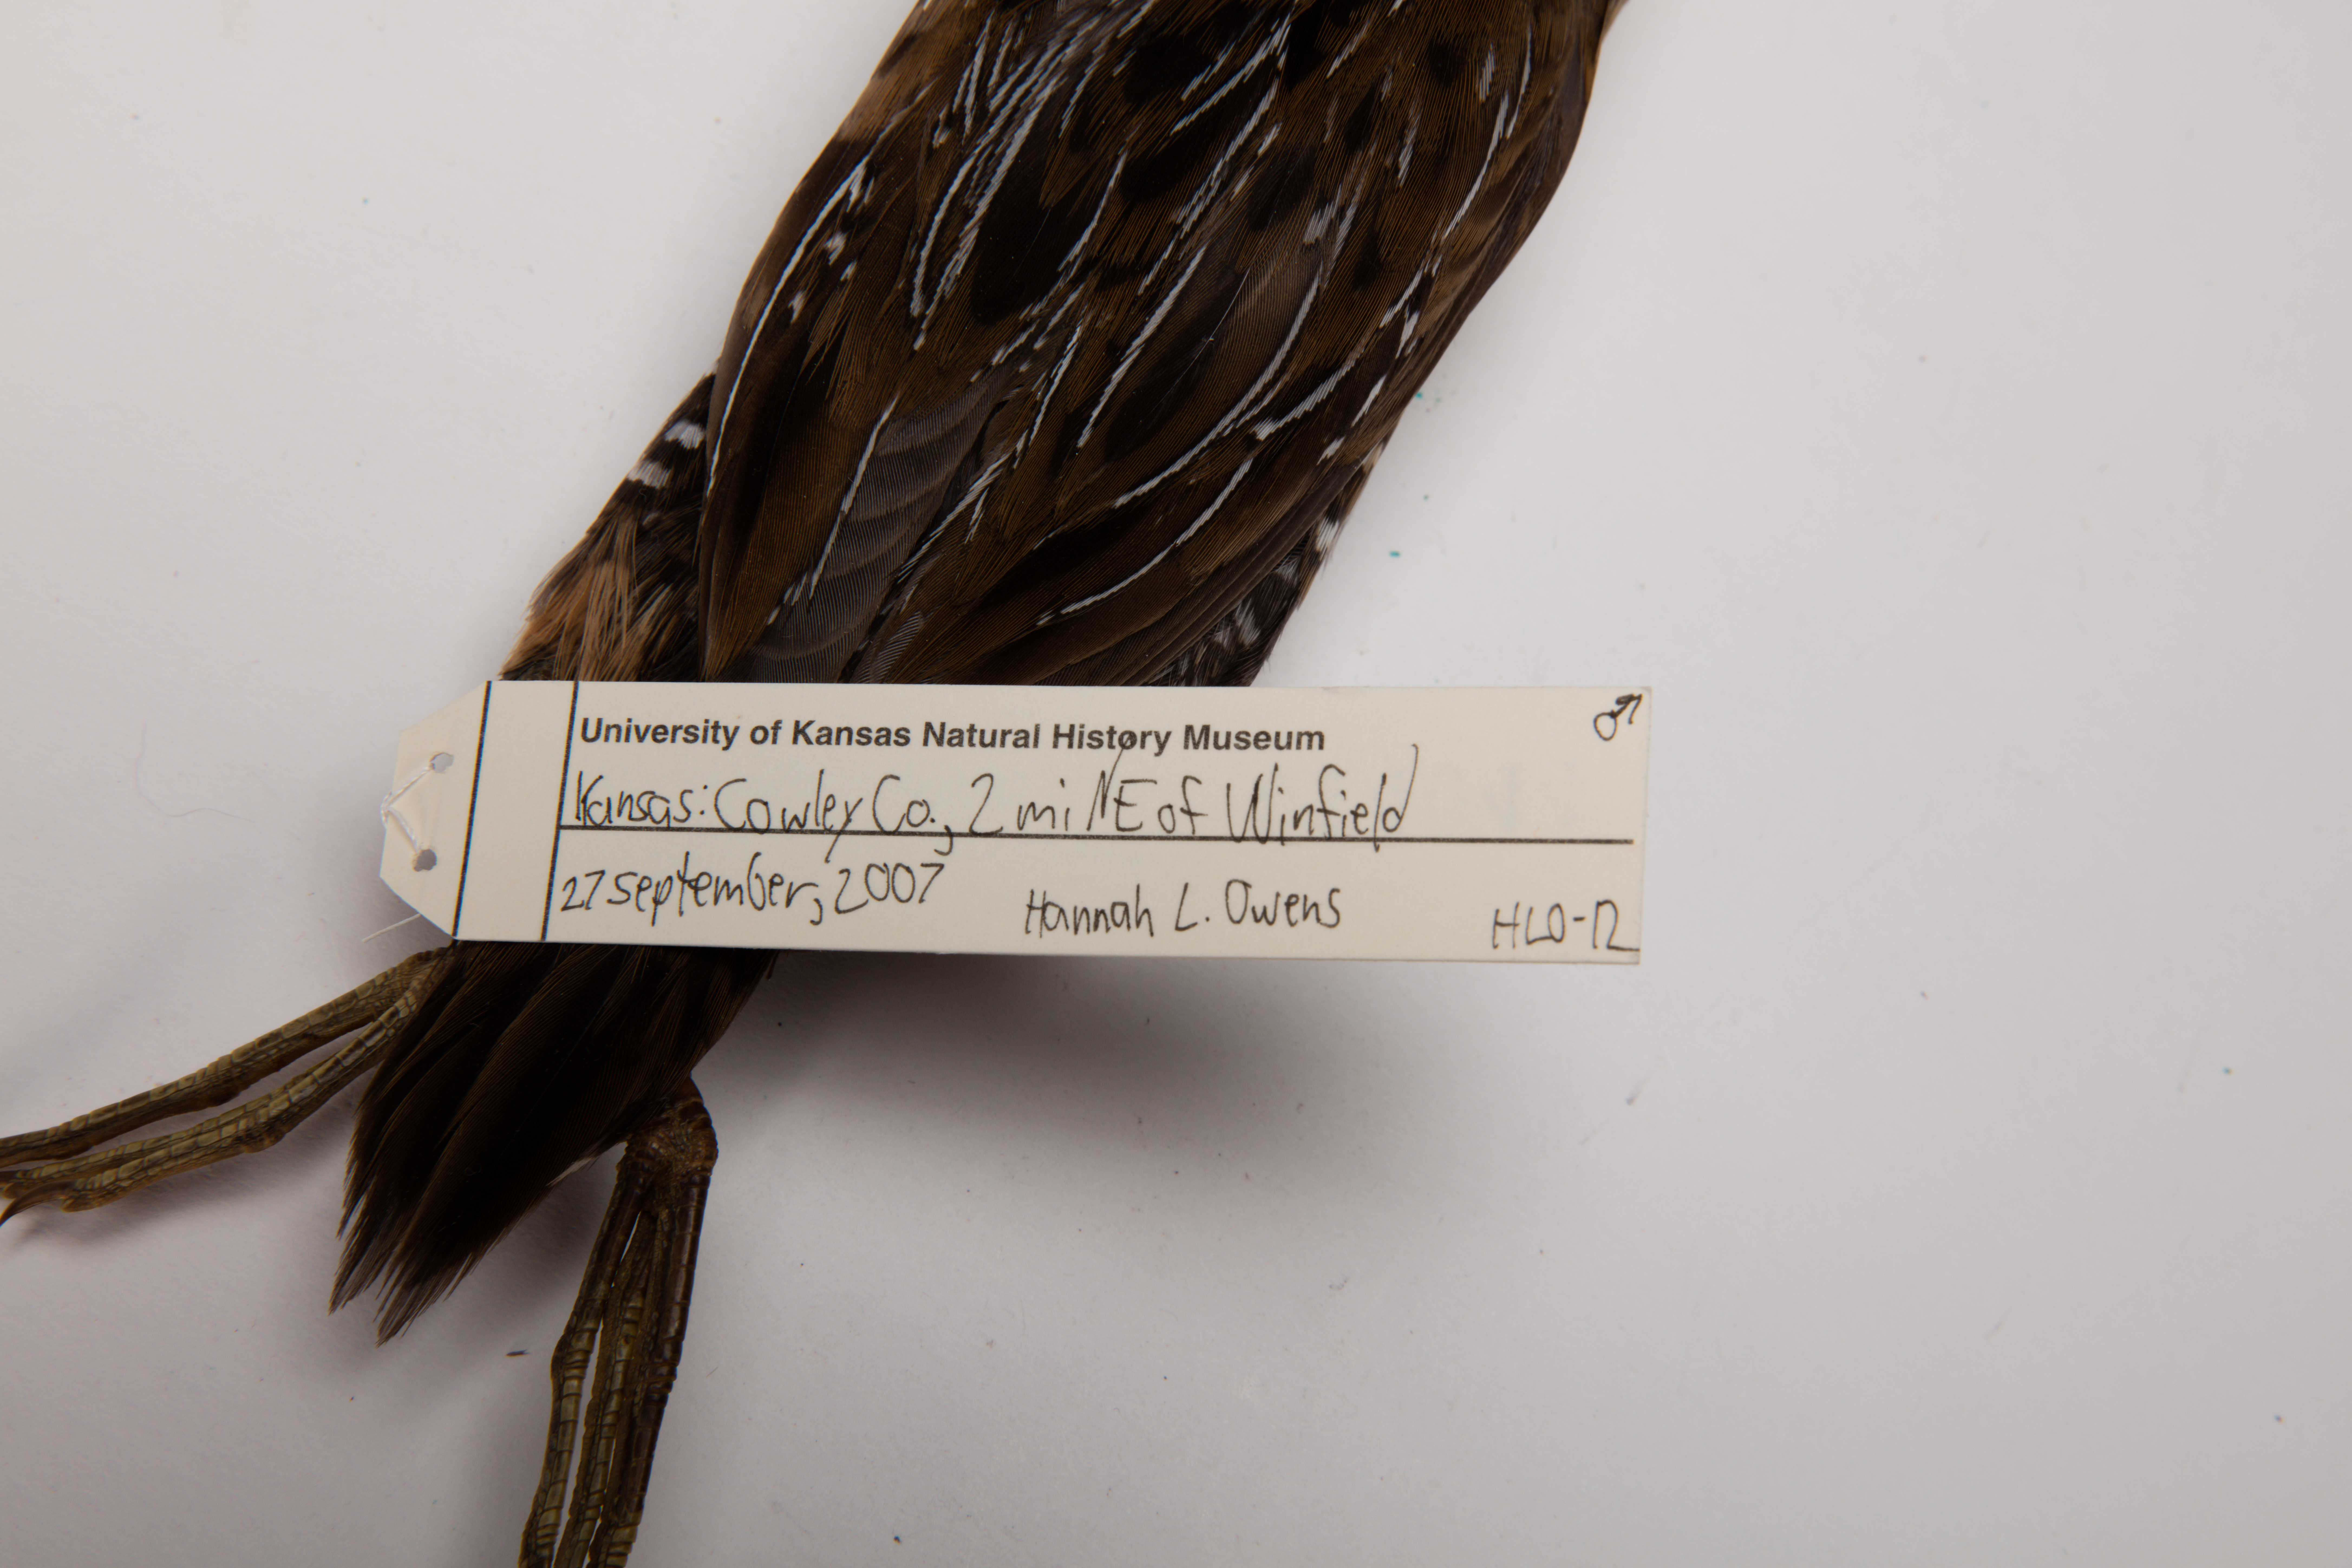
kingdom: Animalia
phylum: Chordata
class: Aves
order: Gruiformes
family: Rallidae
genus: Porzana
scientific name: Porzana carolina
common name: Sora
